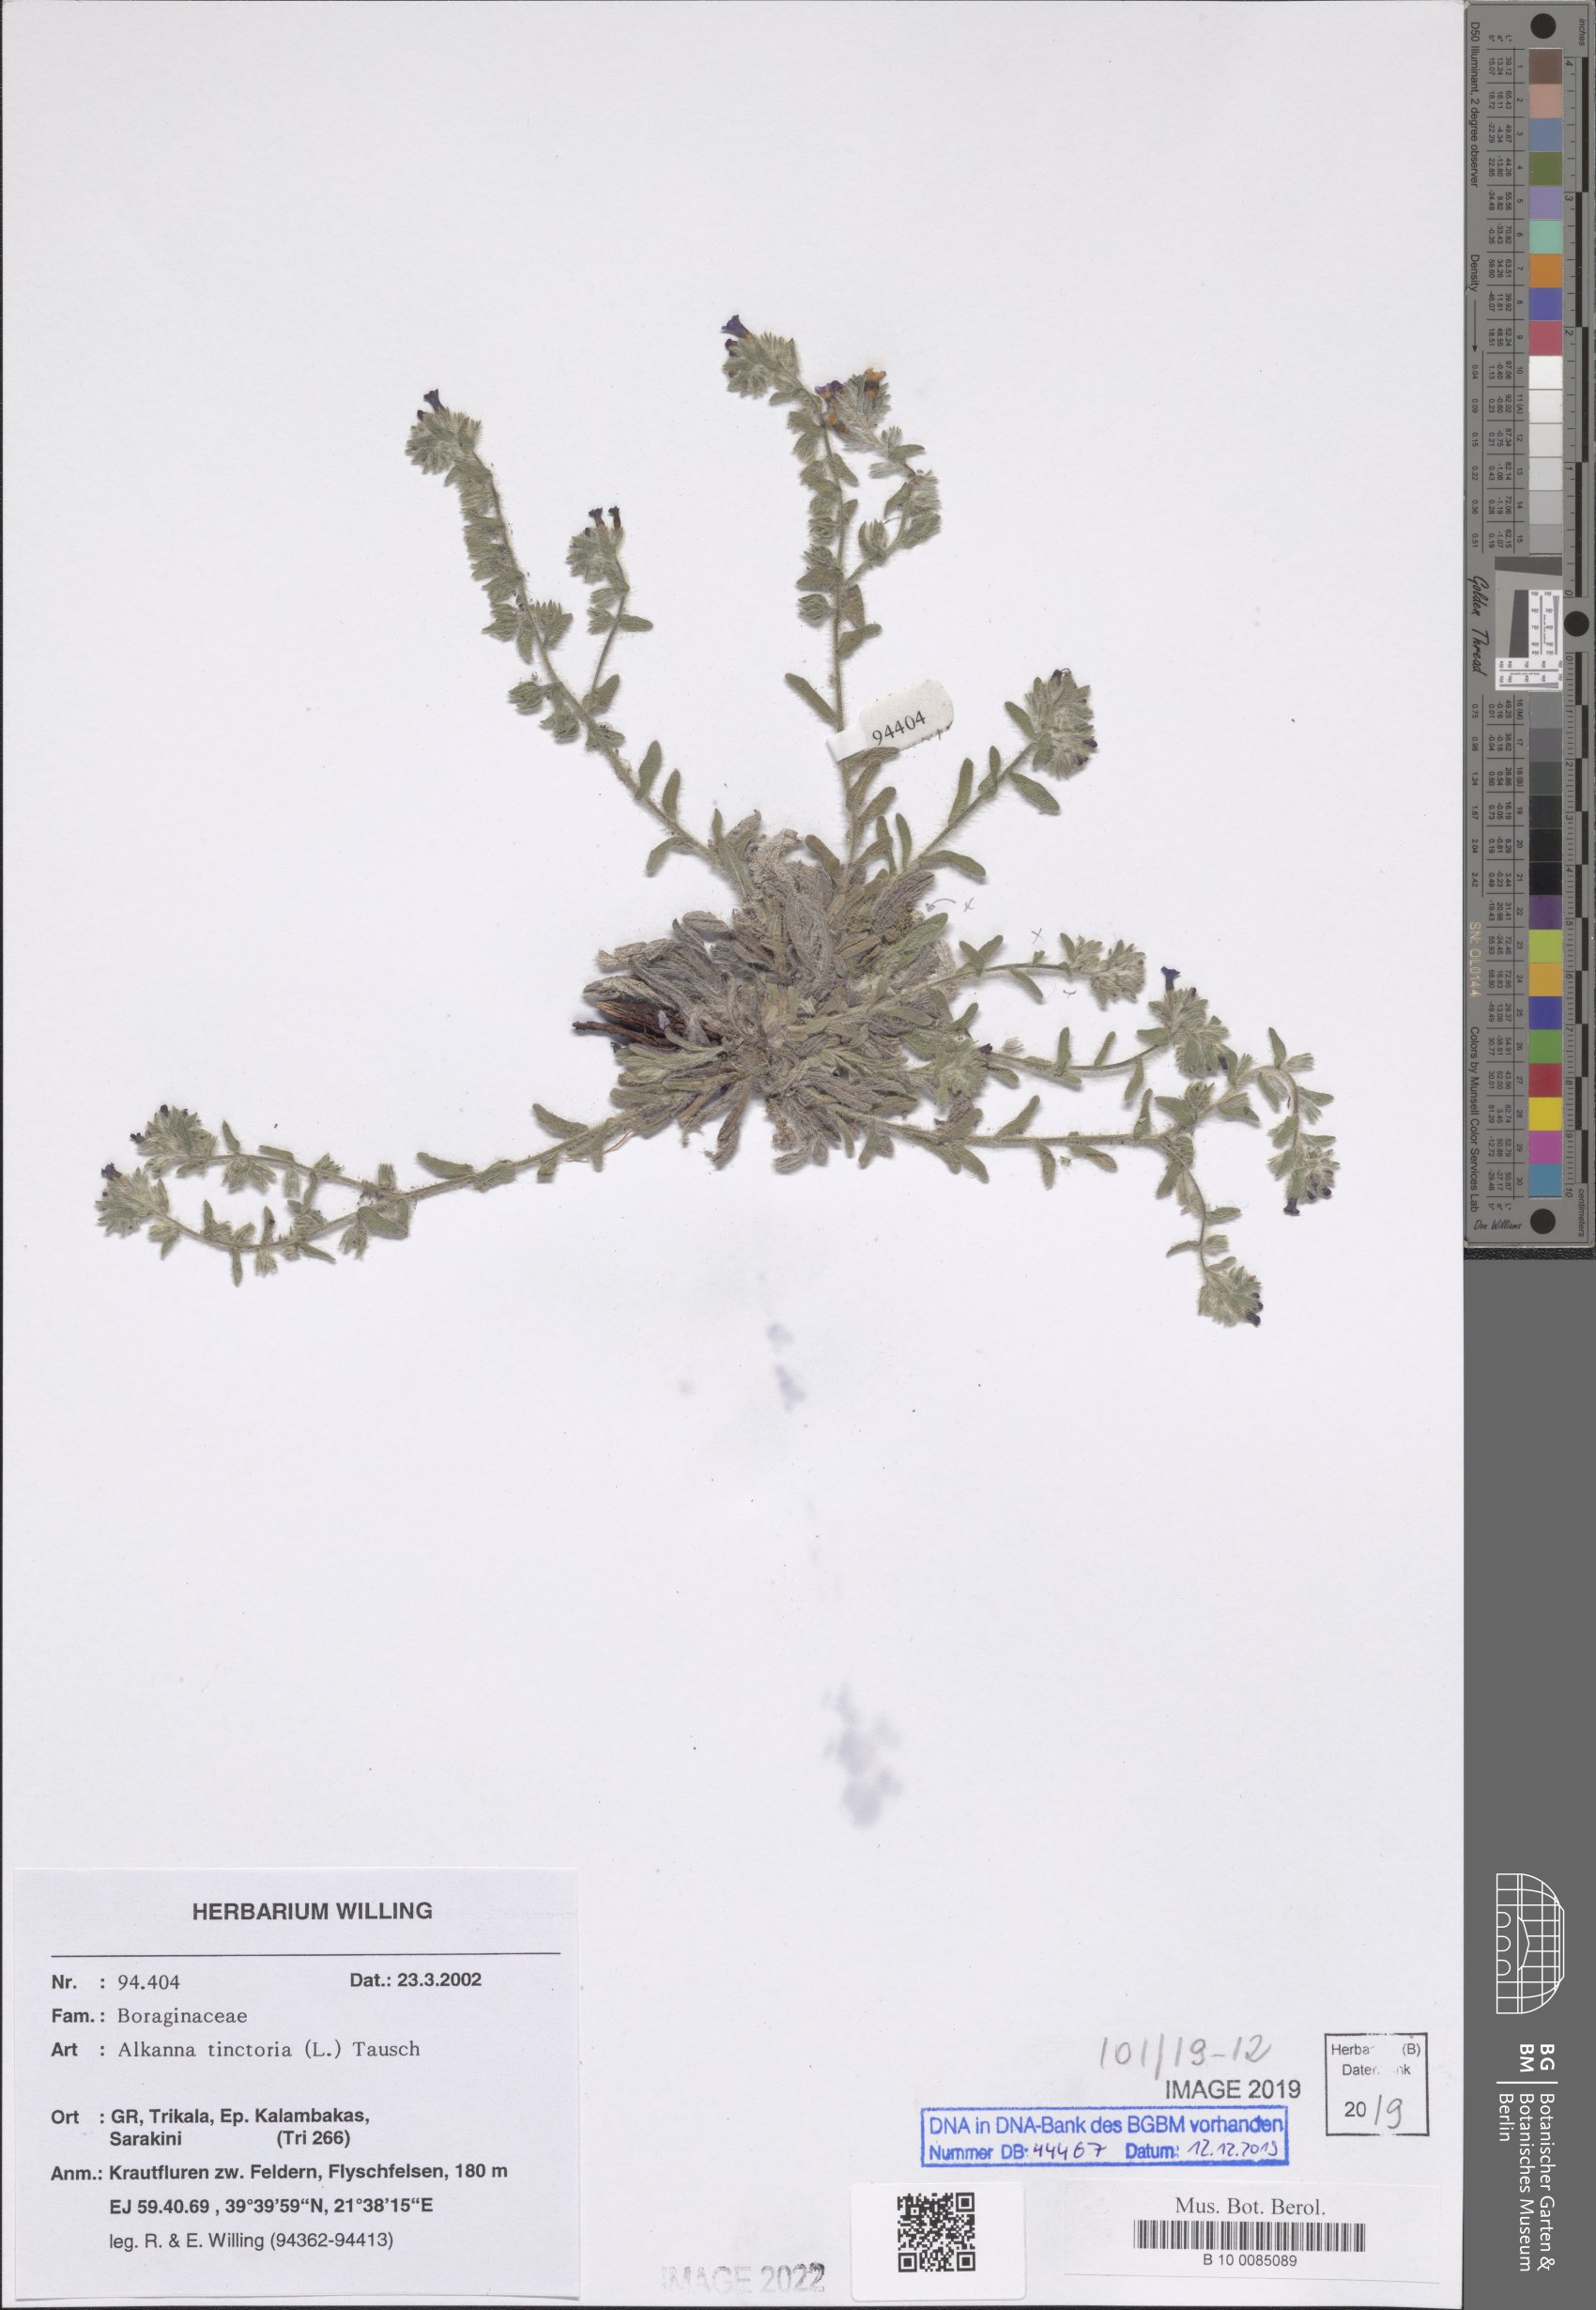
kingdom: Plantae
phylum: Tracheophyta
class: Magnoliopsida
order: Boraginales
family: Boraginaceae
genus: Alkanna
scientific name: Alkanna tinctoria
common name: Dyer's-alkanet
